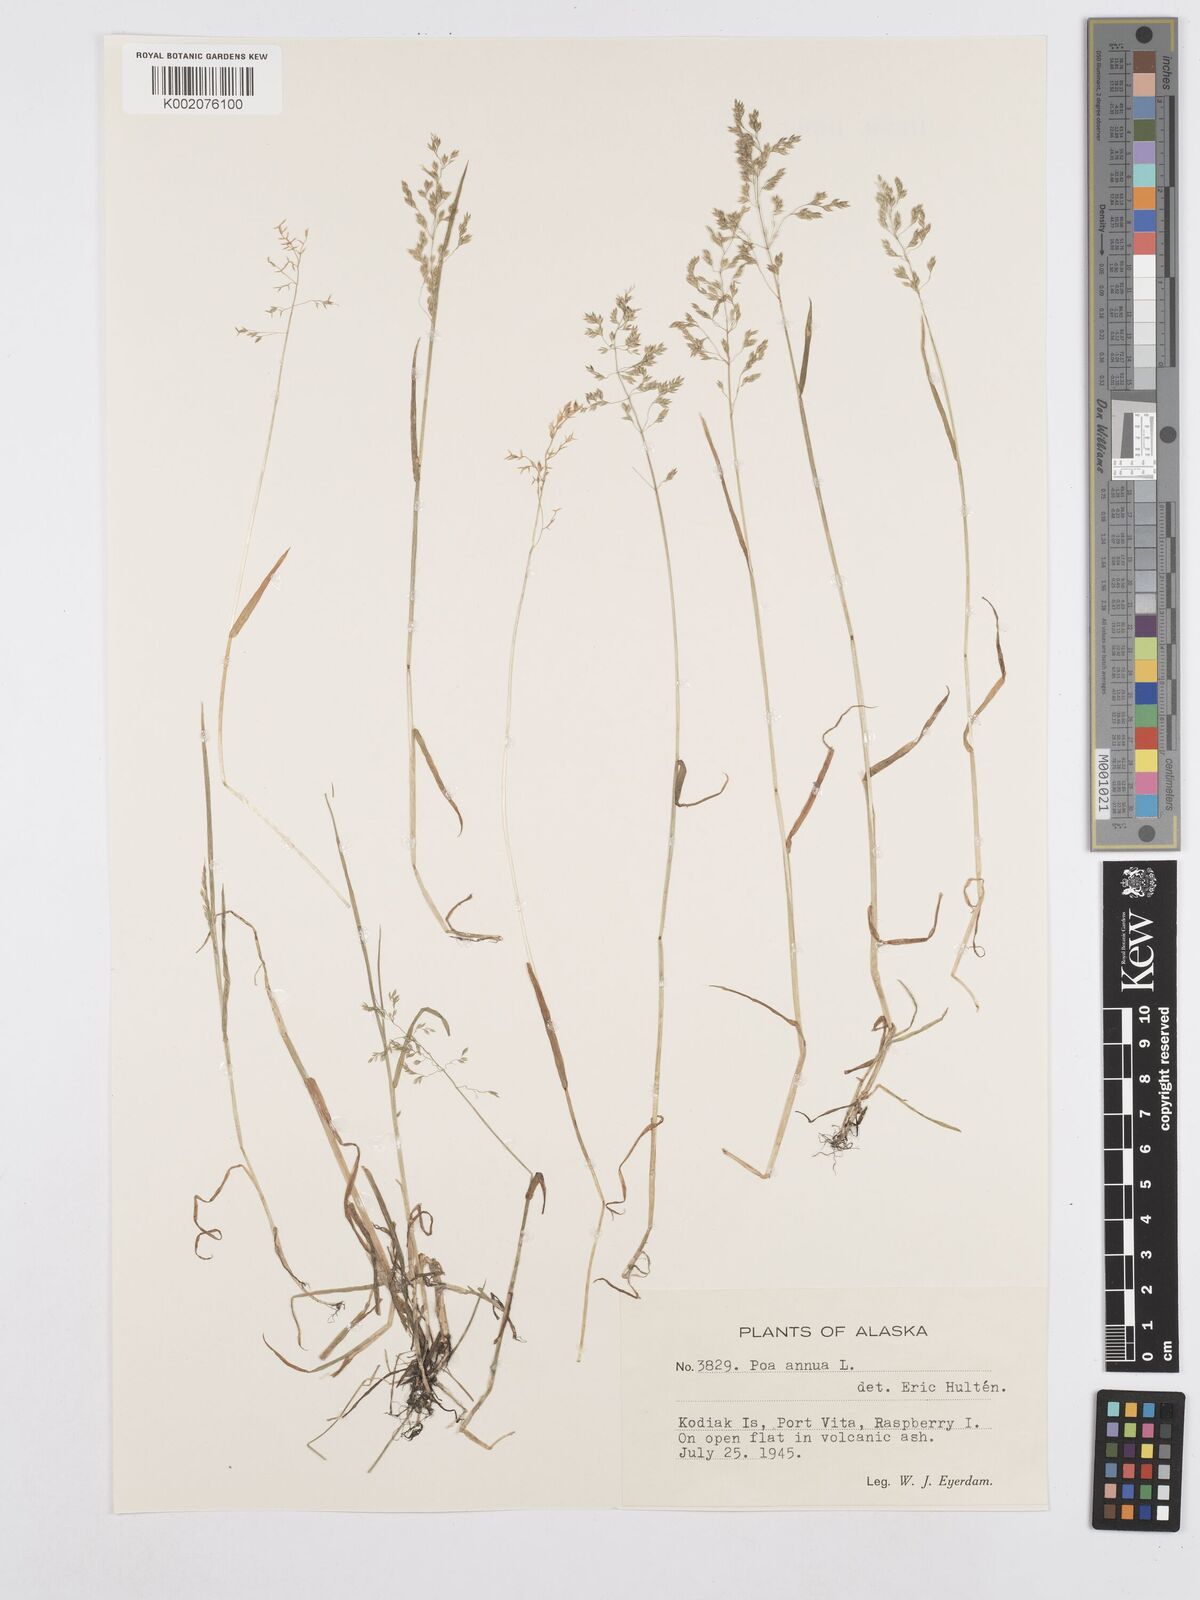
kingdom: Plantae
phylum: Tracheophyta
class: Liliopsida
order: Poales
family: Poaceae
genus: Poa
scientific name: Poa annua
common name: Annual bluegrass
